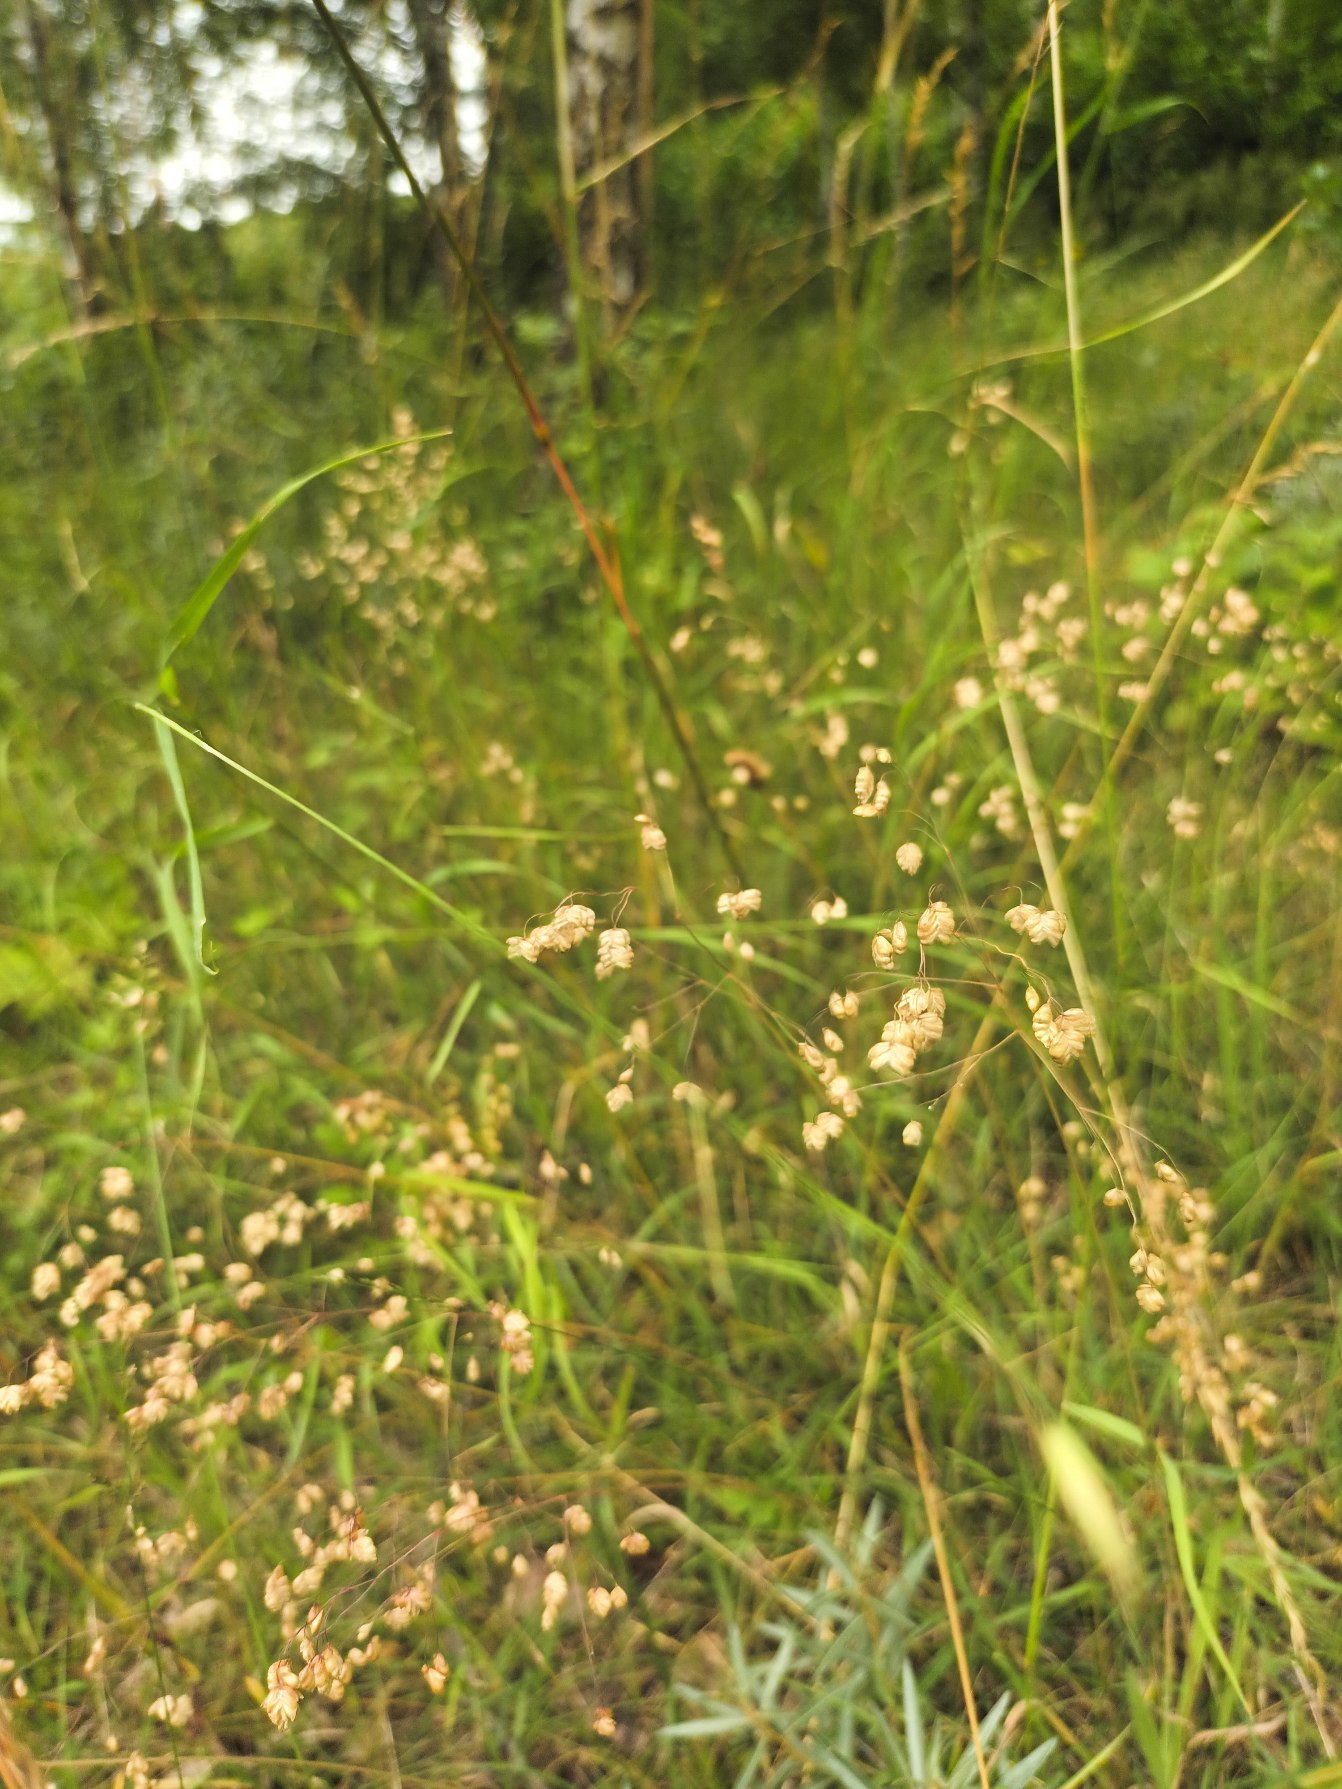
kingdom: Plantae
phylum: Tracheophyta
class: Liliopsida
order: Poales
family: Poaceae
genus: Briza
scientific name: Briza media
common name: Hjertegræs
